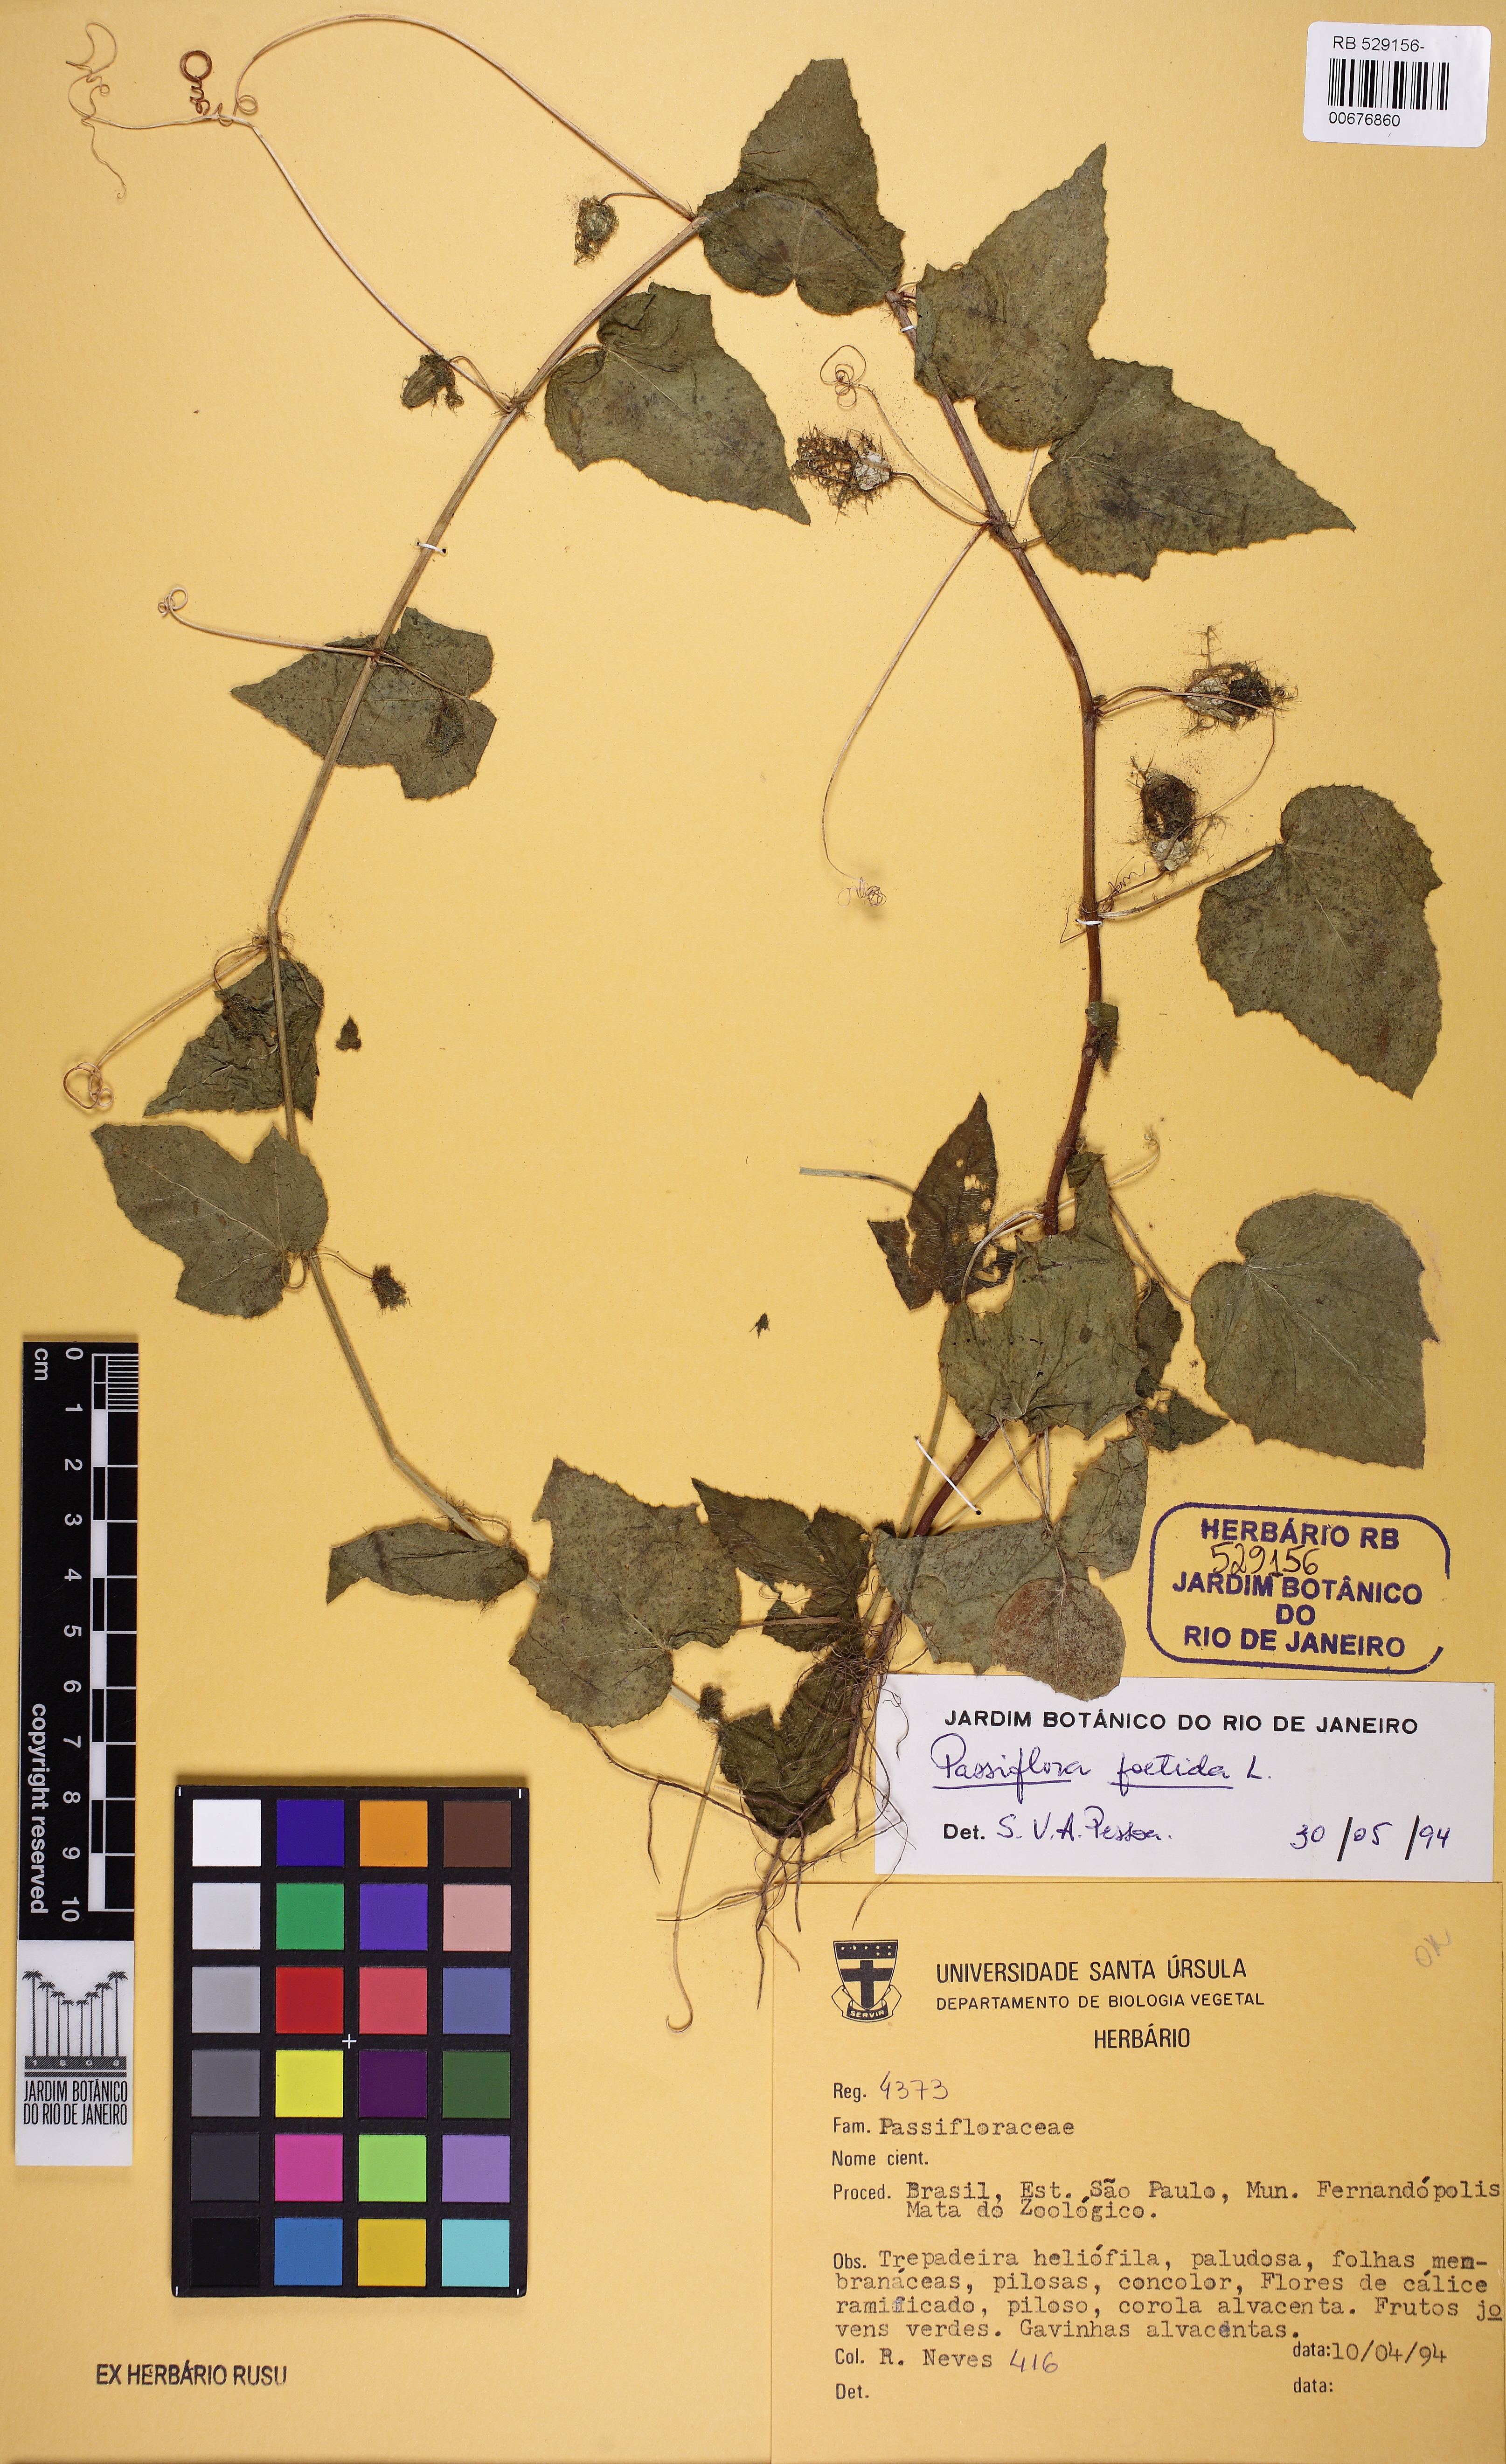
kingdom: Plantae
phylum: Tracheophyta
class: Magnoliopsida
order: Malpighiales
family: Passifloraceae
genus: Passiflora
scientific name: Passiflora foetida
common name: Fetid passionflower
